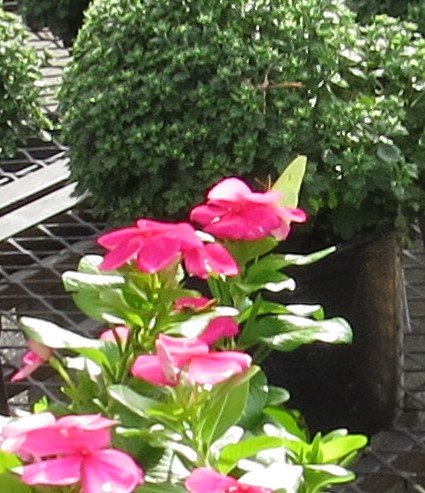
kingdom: Animalia
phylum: Arthropoda
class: Insecta
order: Lepidoptera
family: Pieridae
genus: Phoebis
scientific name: Phoebis sennae
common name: Cloudless Sulphur
